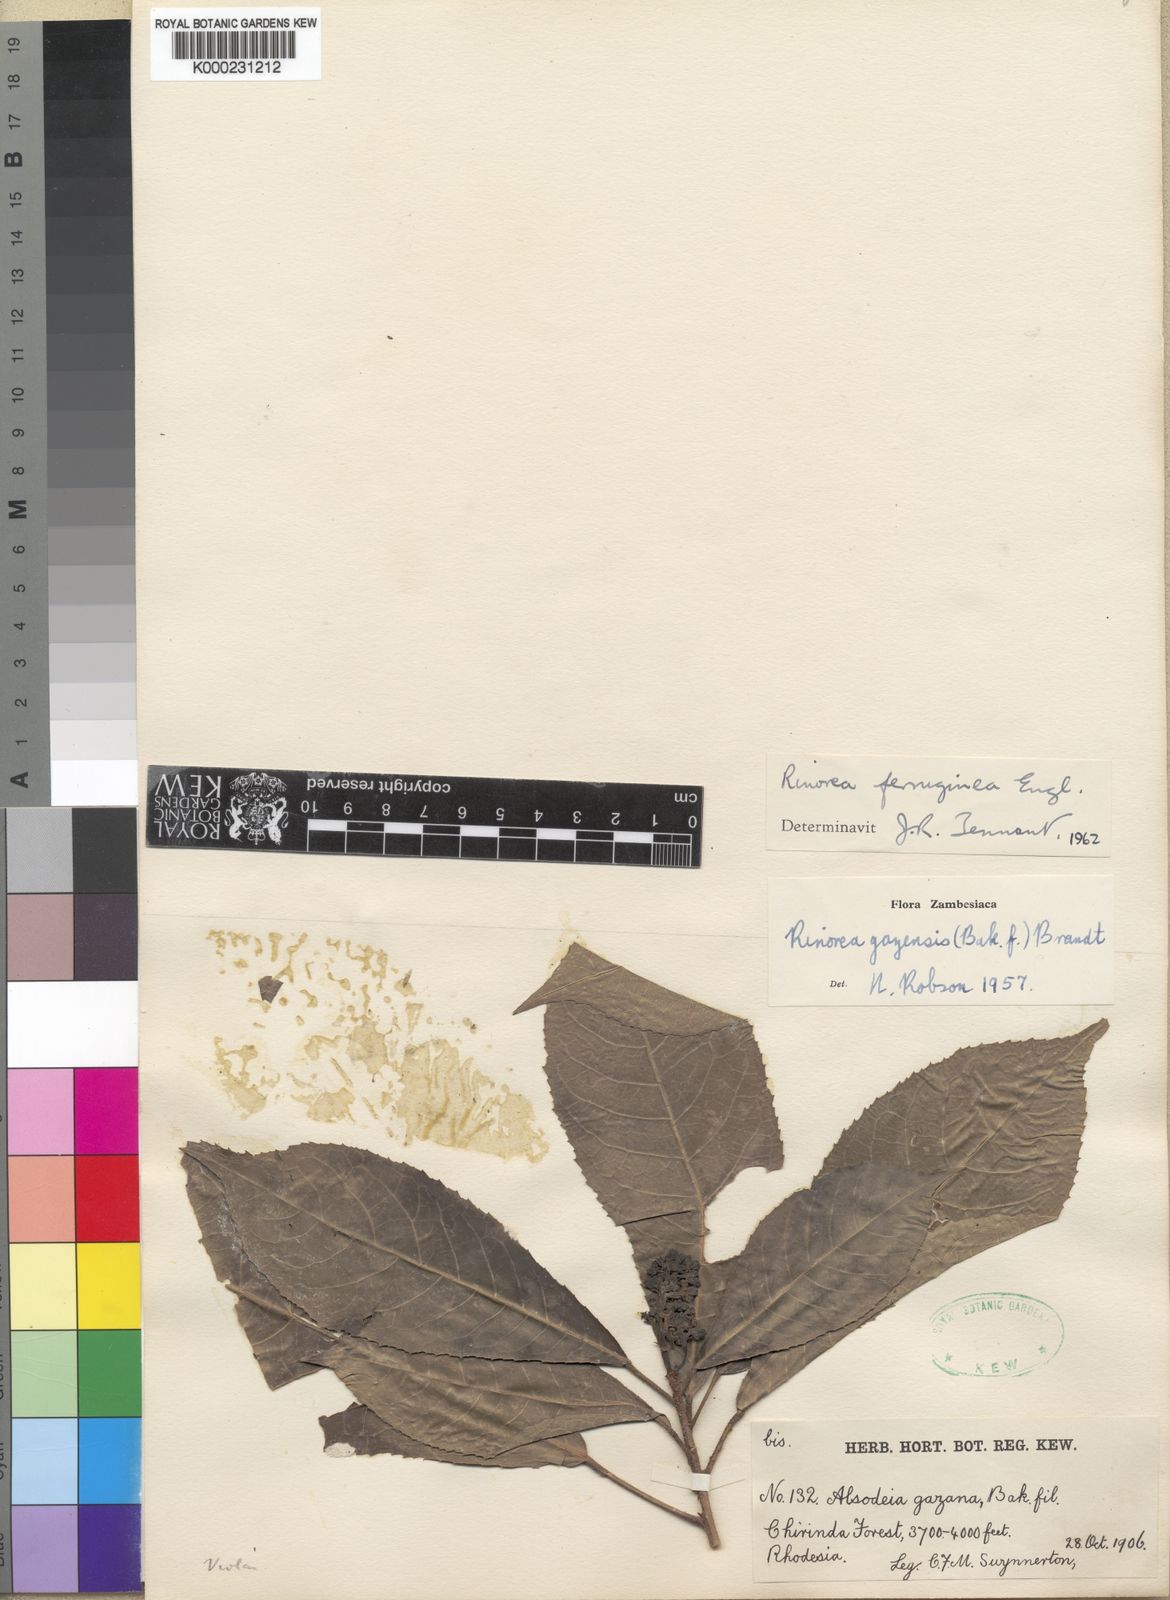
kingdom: Plantae
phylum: Tracheophyta
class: Magnoliopsida
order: Malpighiales
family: Violaceae
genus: Rinorea
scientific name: Rinorea ferruginea
